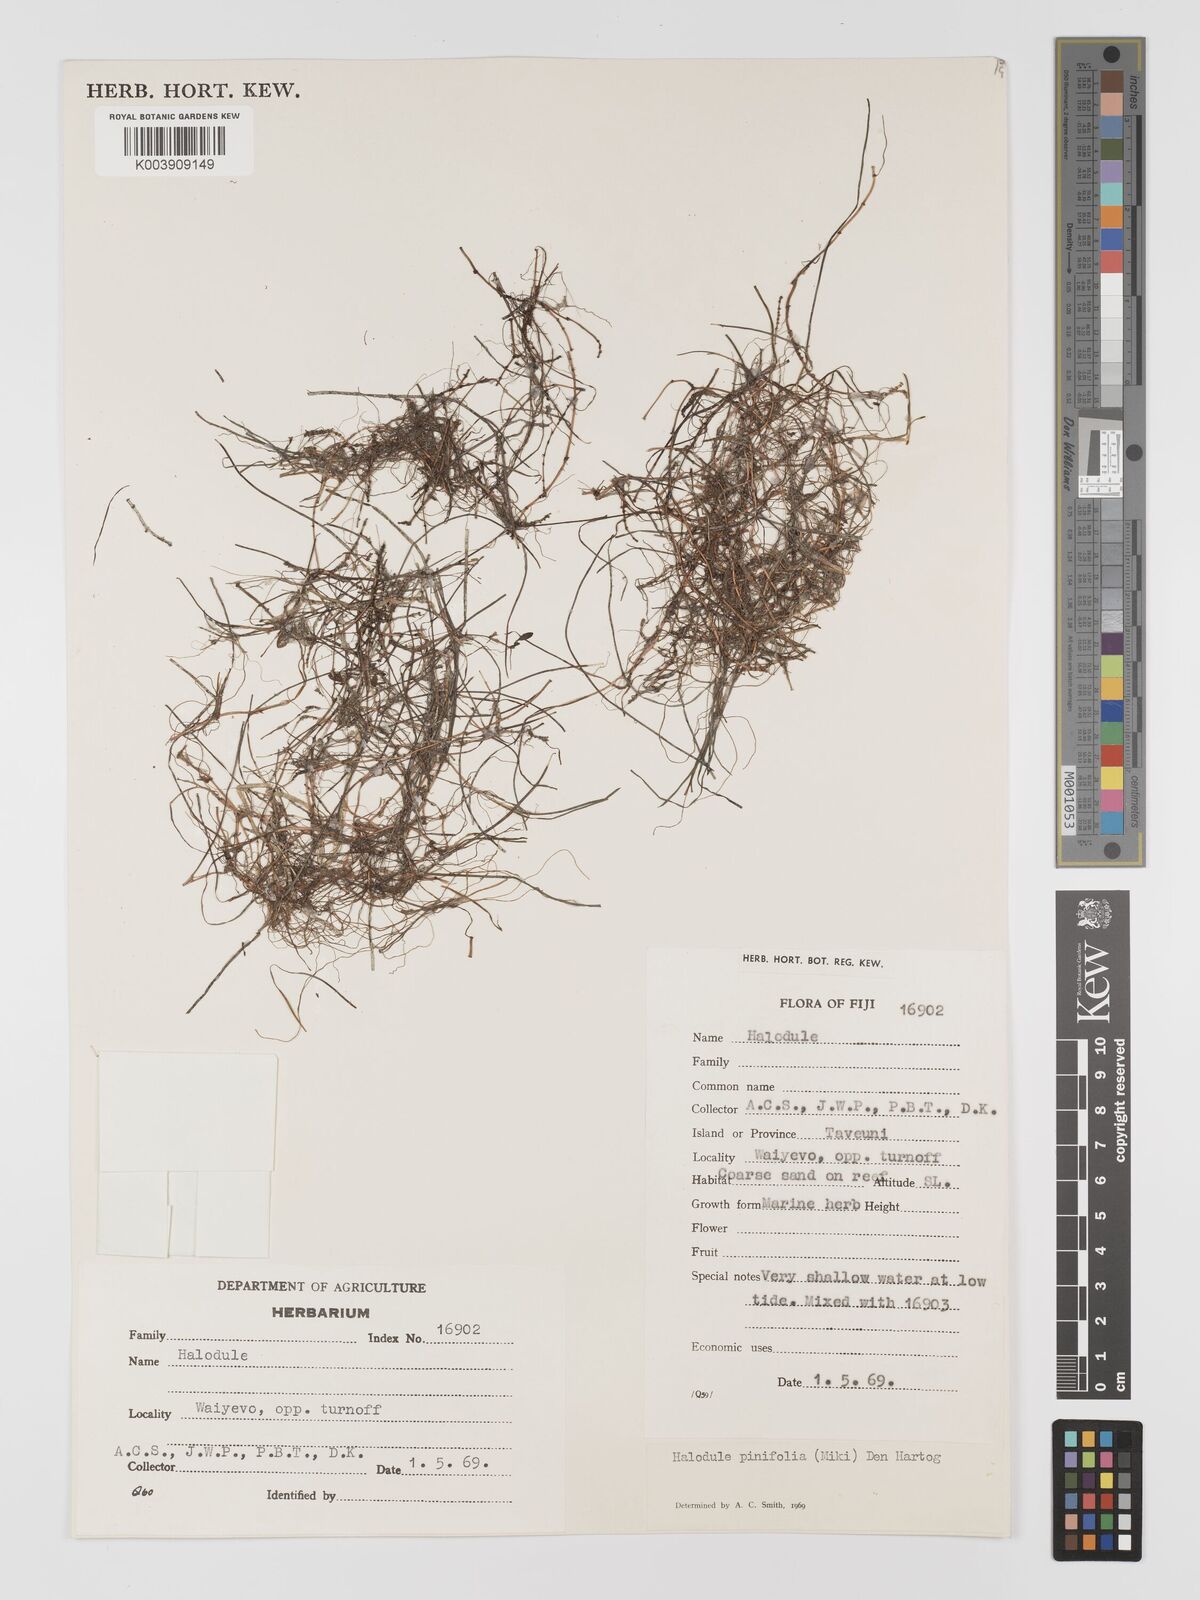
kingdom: Plantae
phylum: Tracheophyta
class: Liliopsida
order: Alismatales
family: Cymodoceaceae
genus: Halodule
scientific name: Halodule pinifolia
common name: Species code: hp
